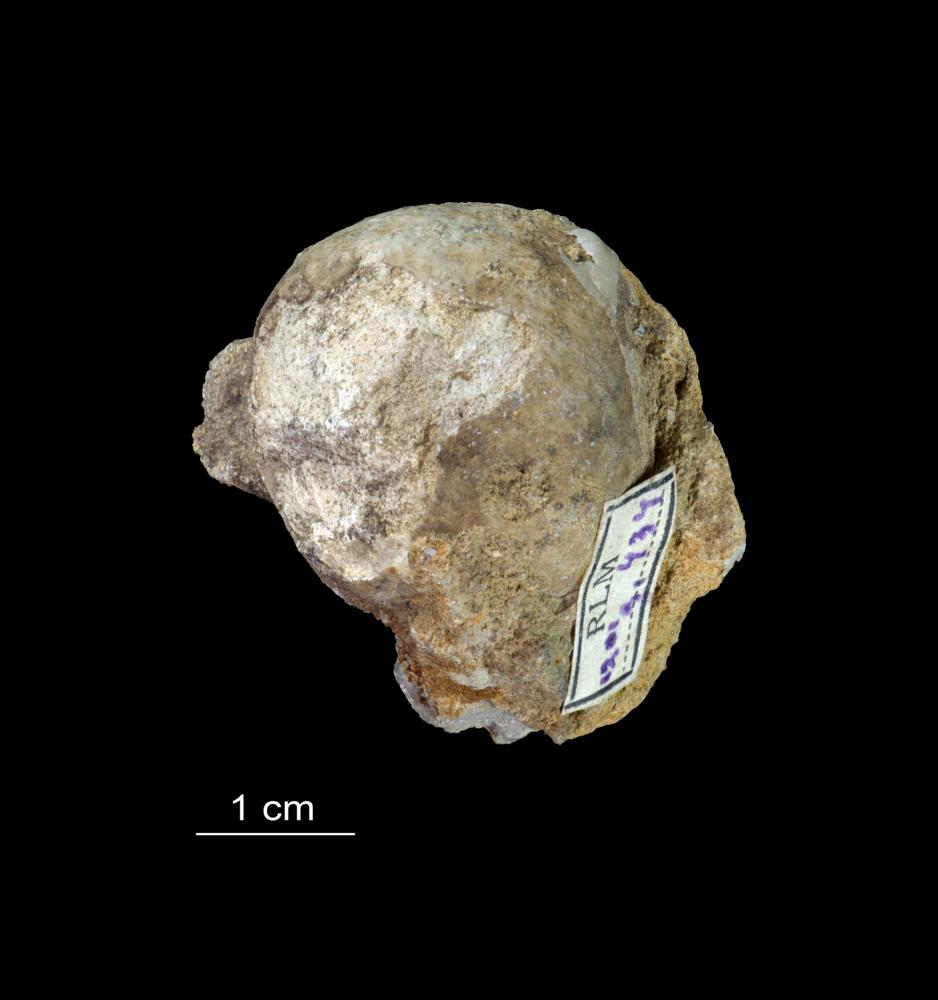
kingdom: Animalia
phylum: Echinodermata
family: Sphaeronitidae
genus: Eucystis
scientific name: Eucystis Glyptosphaerites leuchtenbergi
